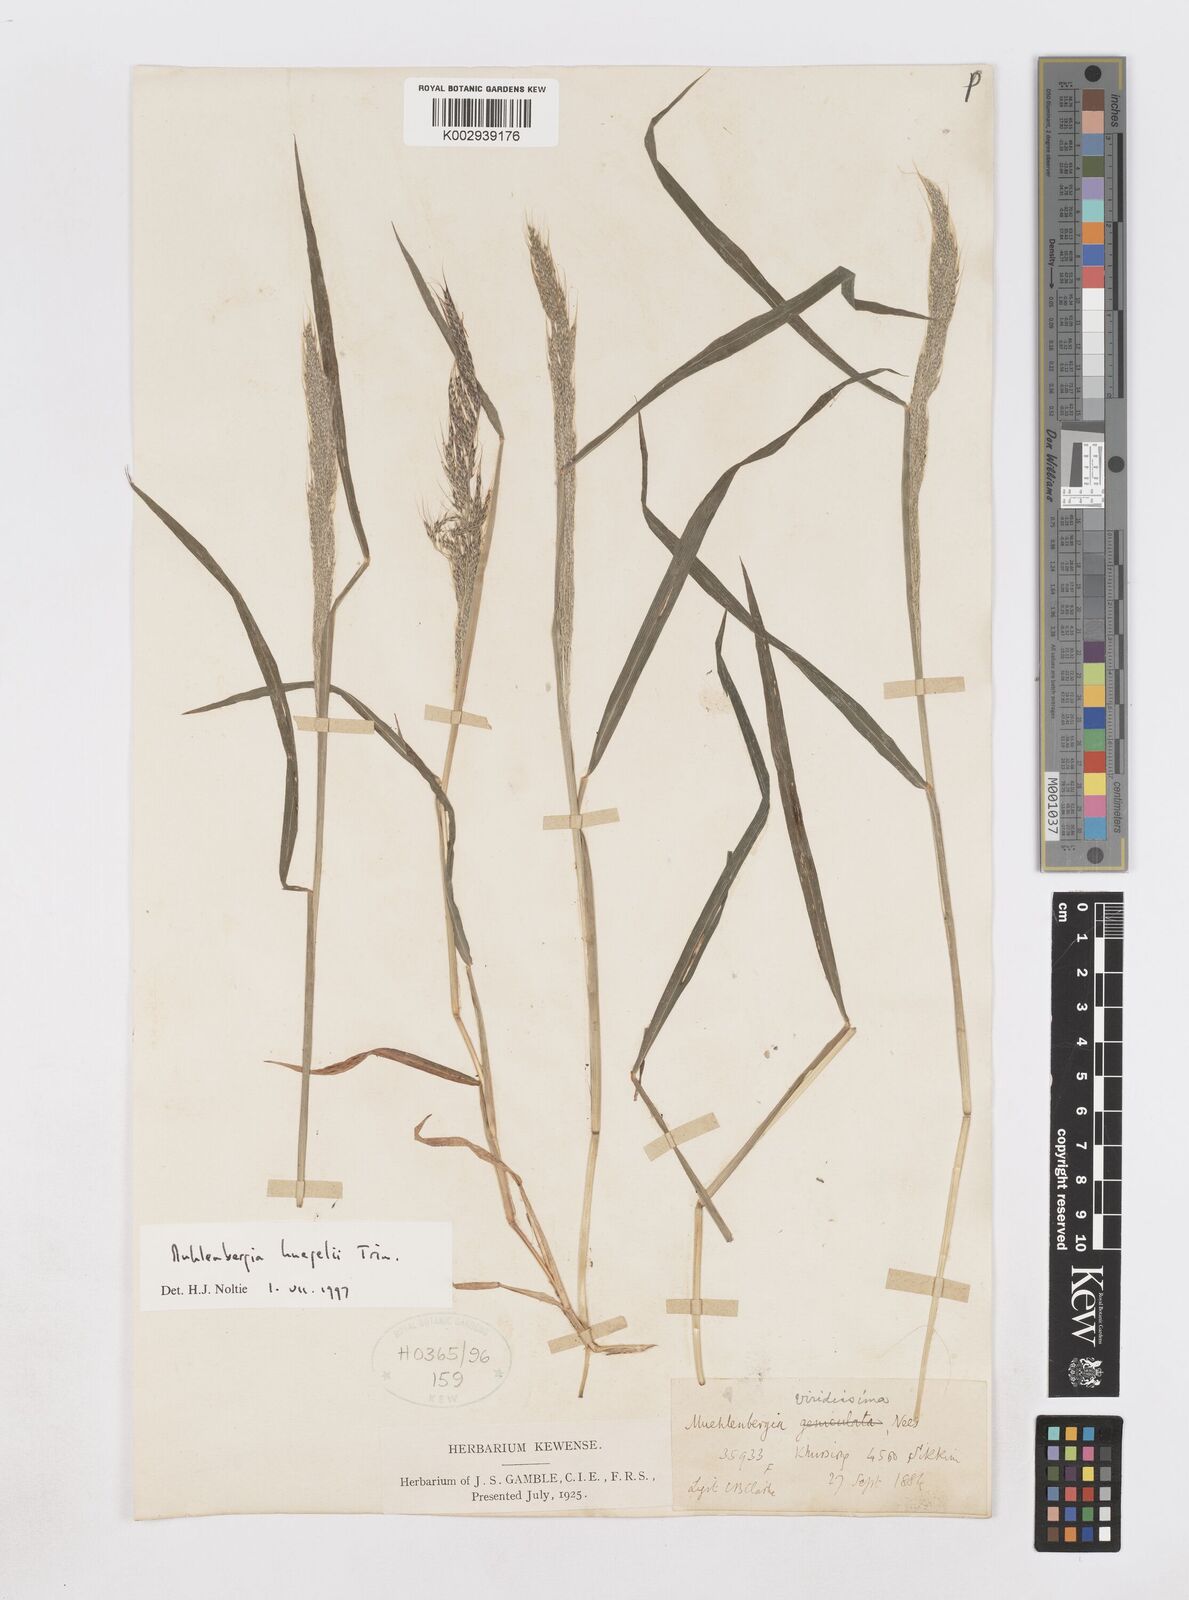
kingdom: Plantae
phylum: Tracheophyta
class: Liliopsida
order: Poales
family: Poaceae
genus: Muhlenbergia
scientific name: Muhlenbergia huegelii
